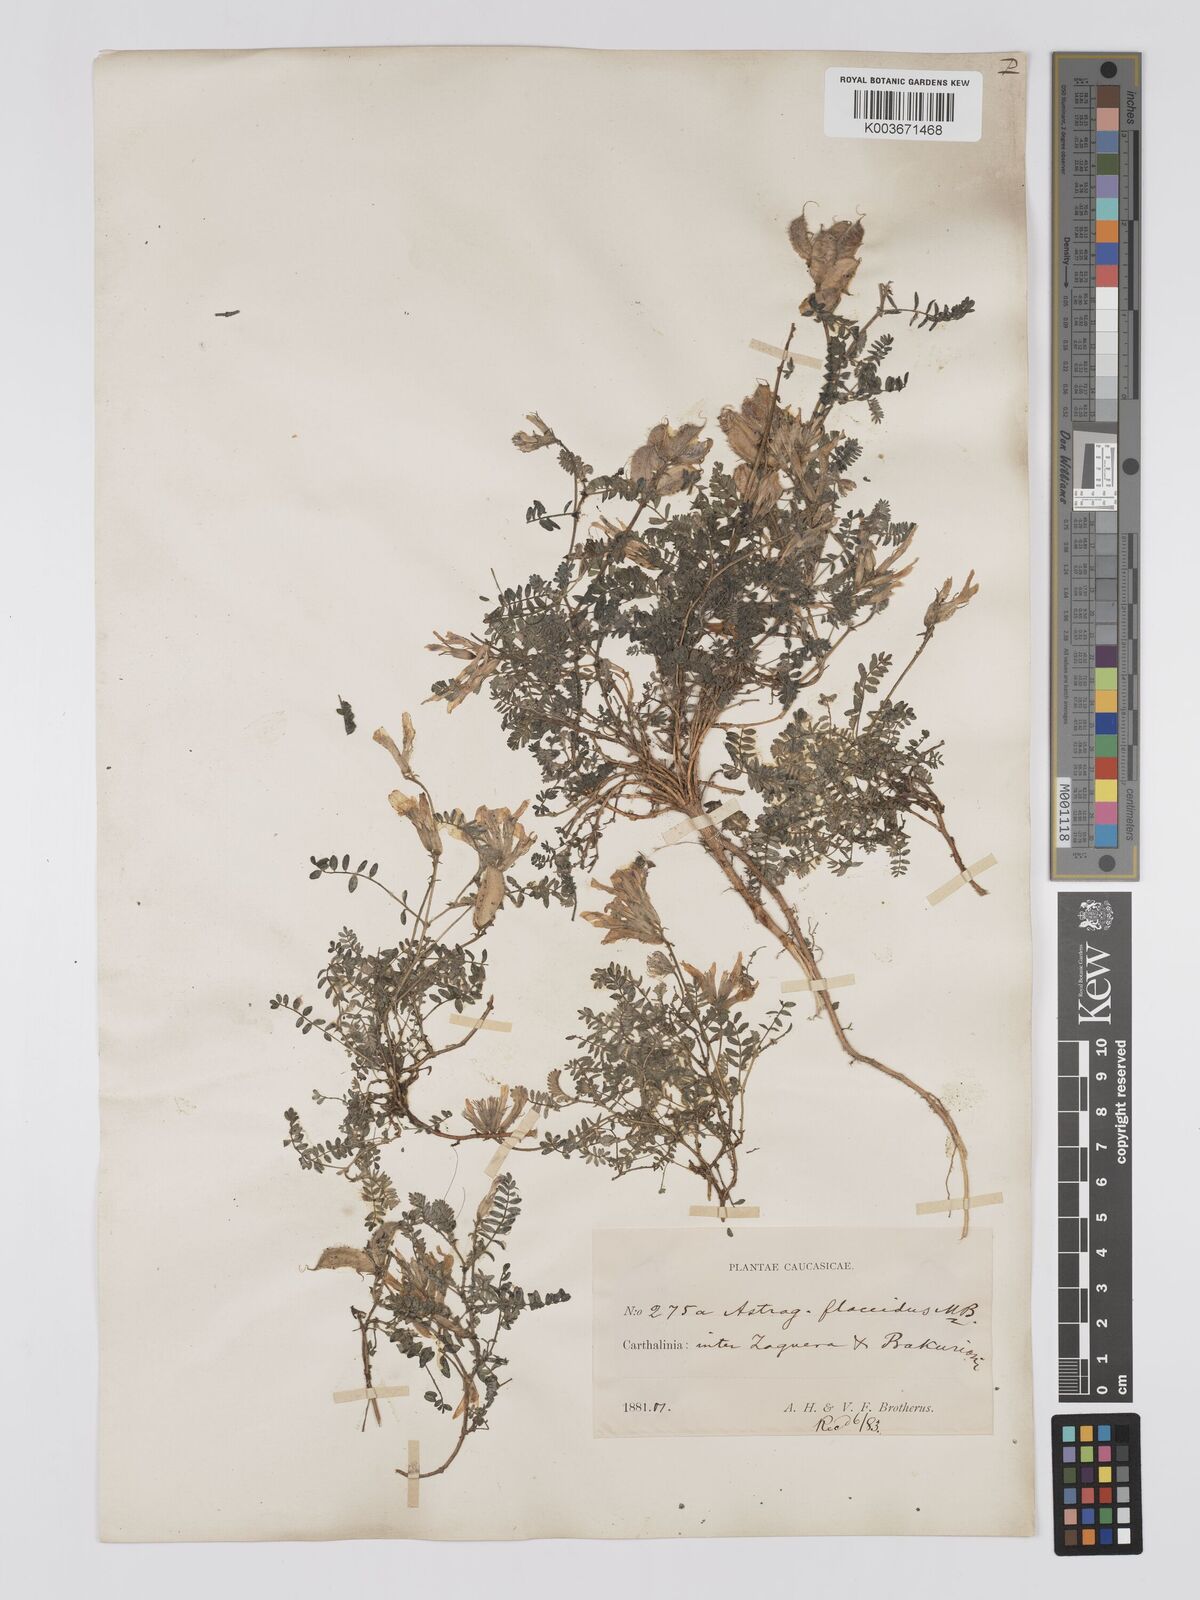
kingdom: Plantae
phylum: Tracheophyta
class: Magnoliopsida
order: Fabales
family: Fabaceae
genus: Astragalus
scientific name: Astragalus humifusus
